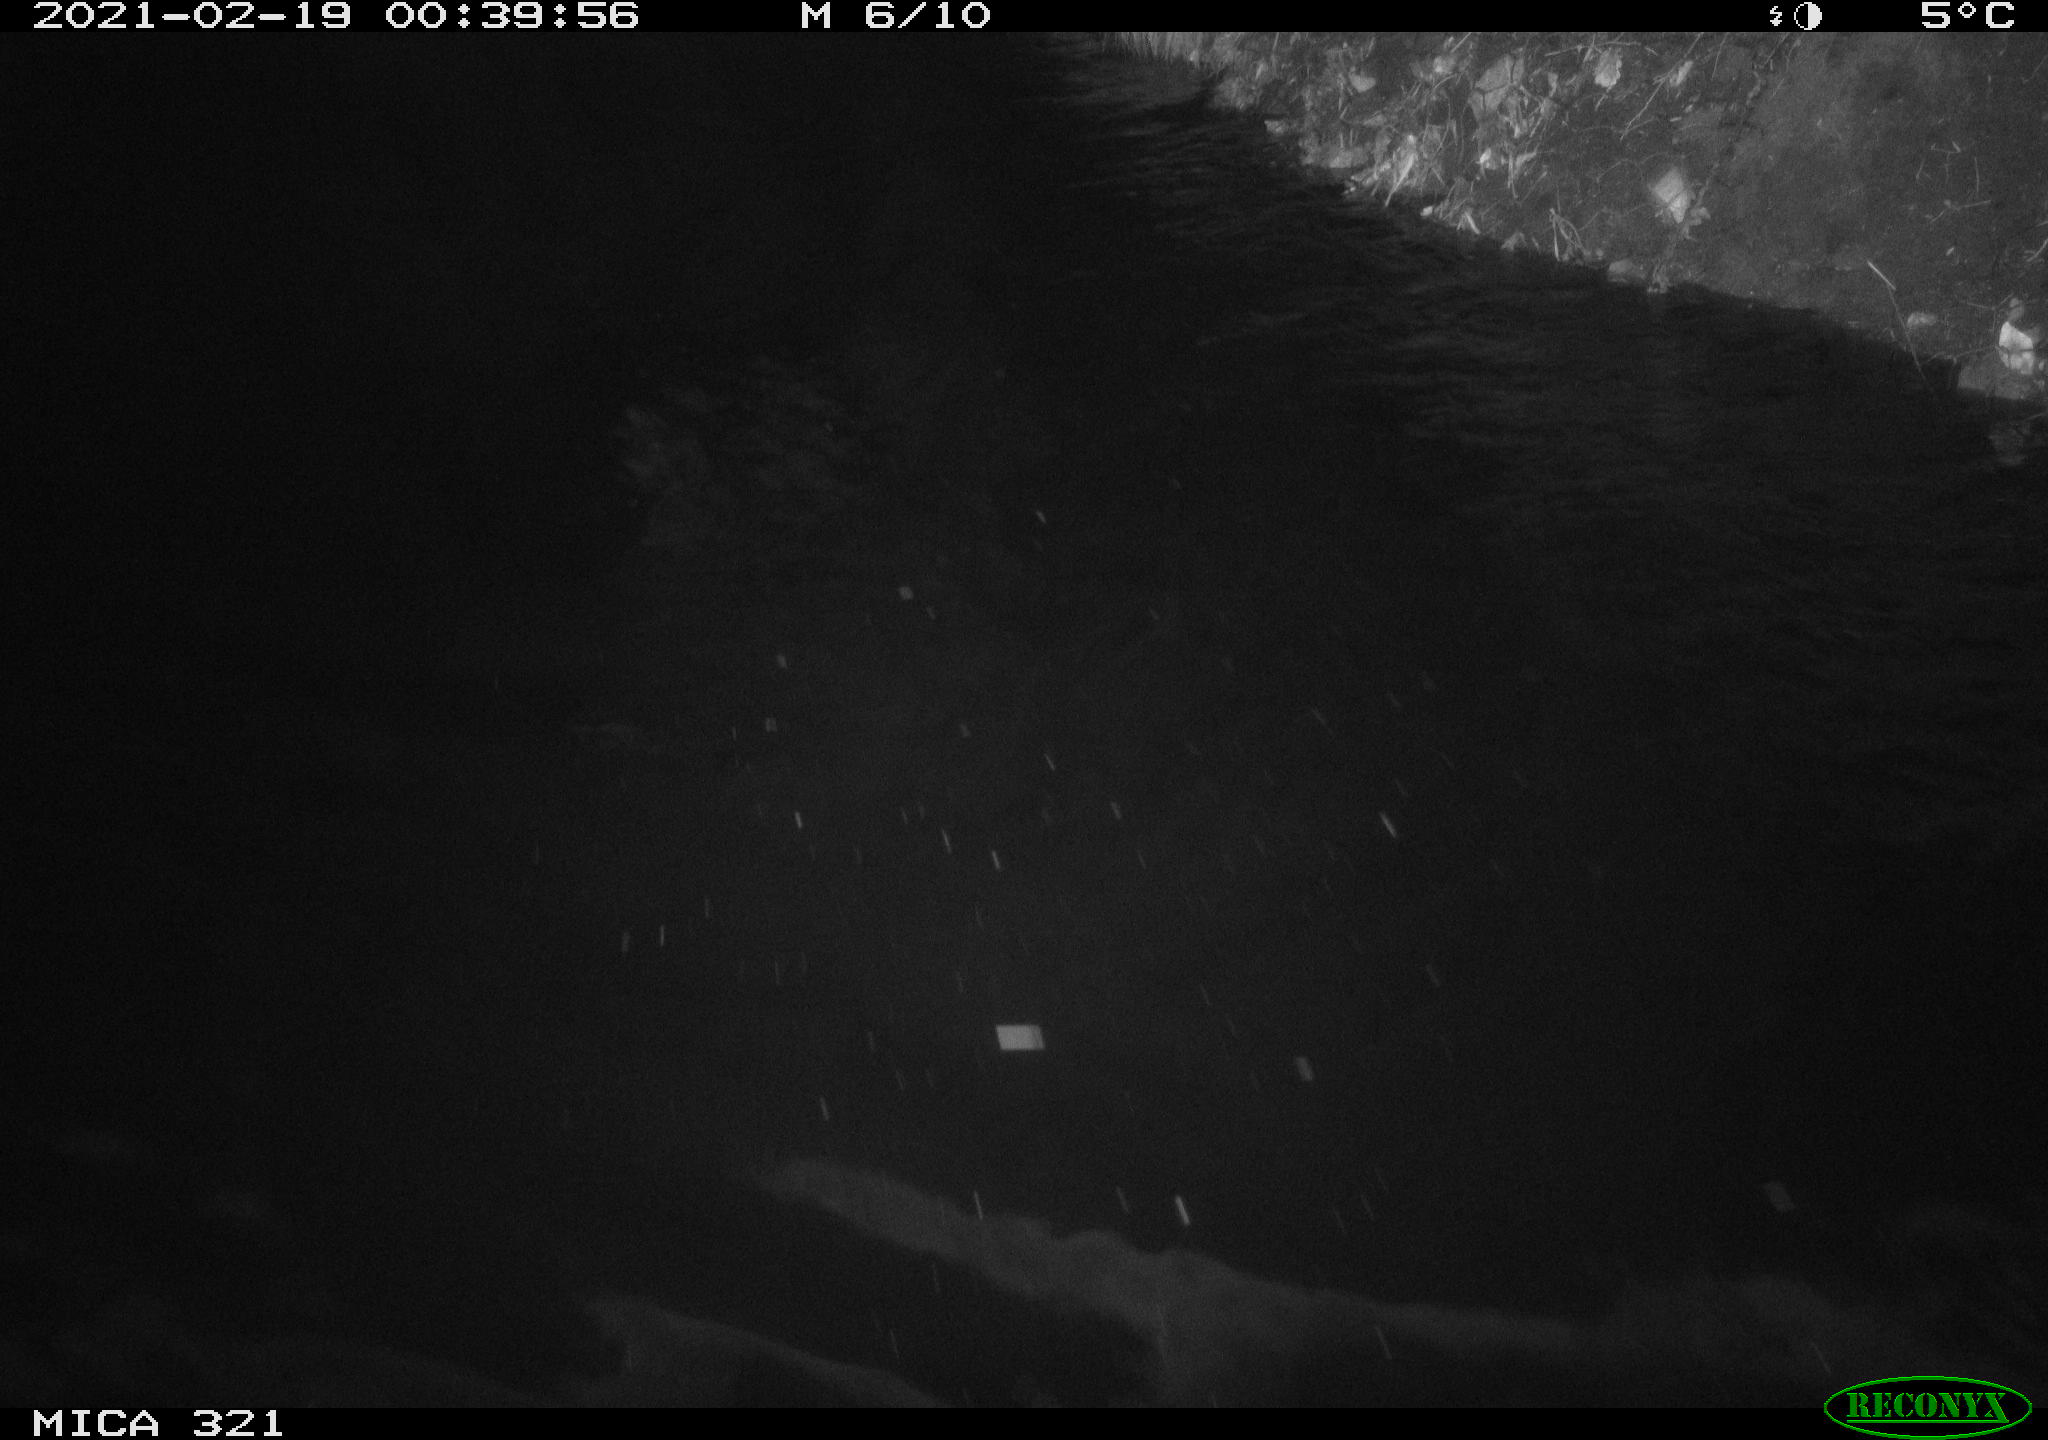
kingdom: Animalia
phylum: Chordata
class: Mammalia
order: Rodentia
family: Muridae
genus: Rattus
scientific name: Rattus norvegicus
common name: Brown rat
